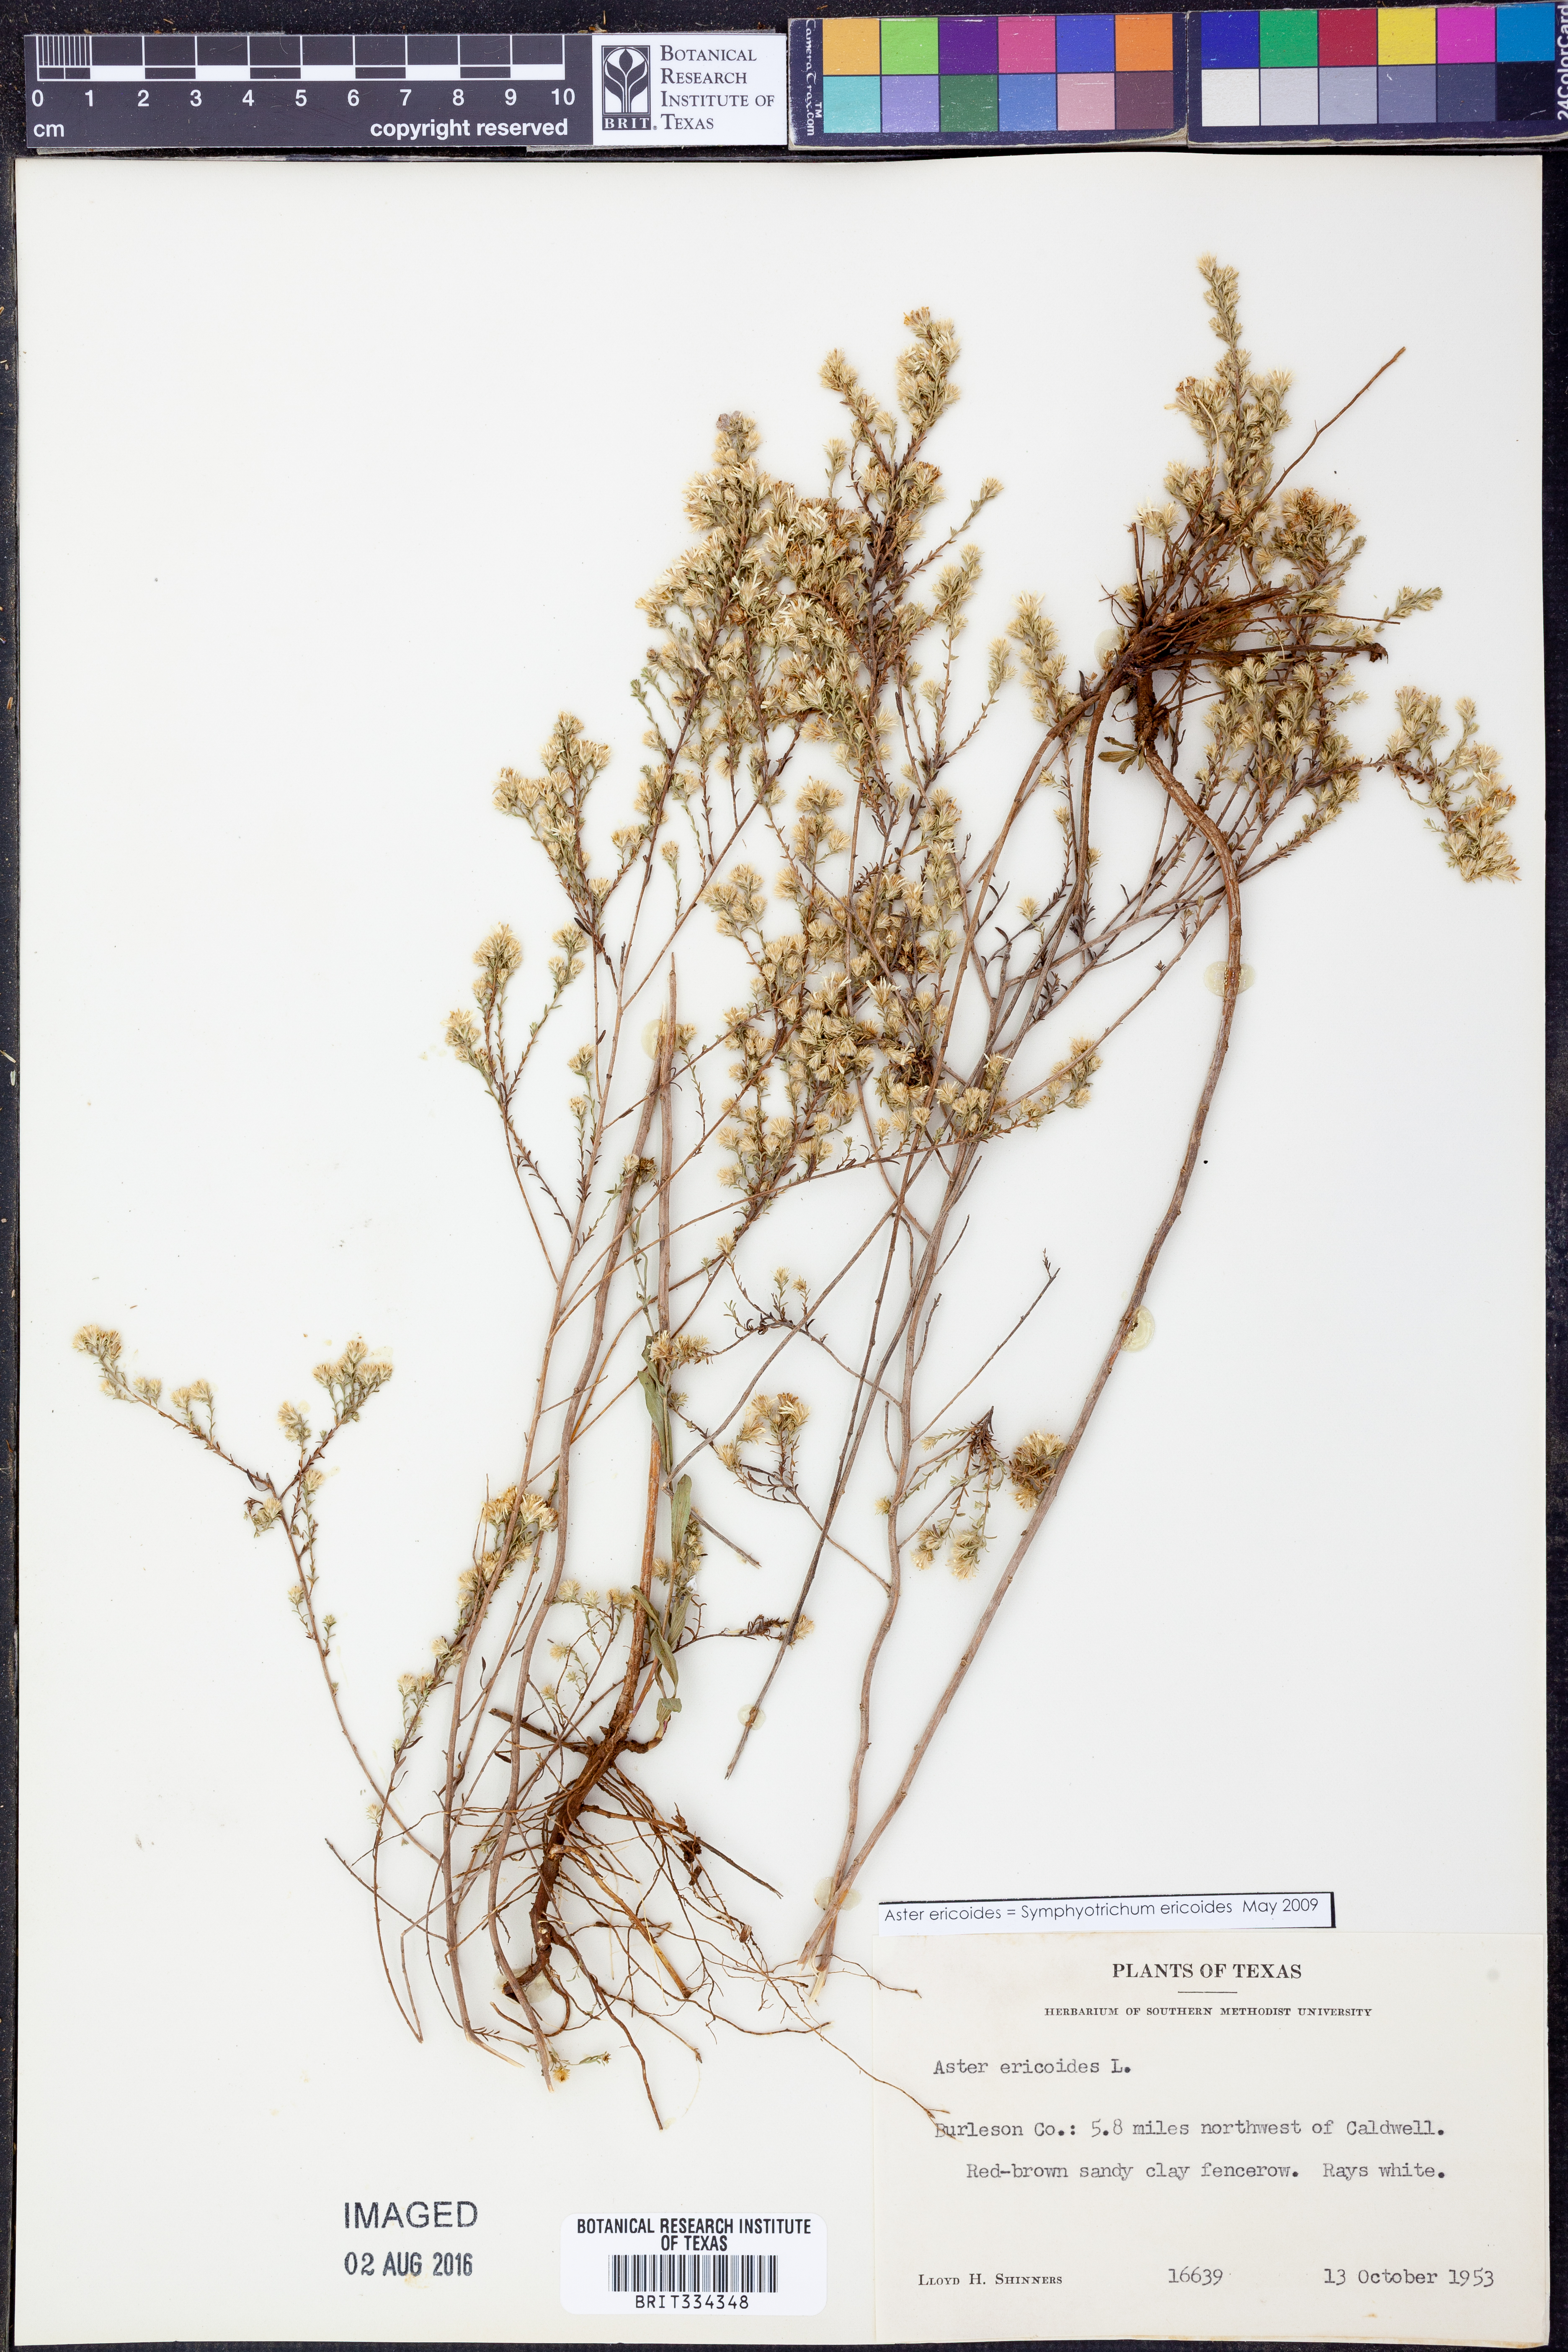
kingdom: Plantae
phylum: Tracheophyta
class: Magnoliopsida
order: Asterales
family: Asteraceae
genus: Symphyotrichum
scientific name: Symphyotrichum ericoides
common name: Heath aster
